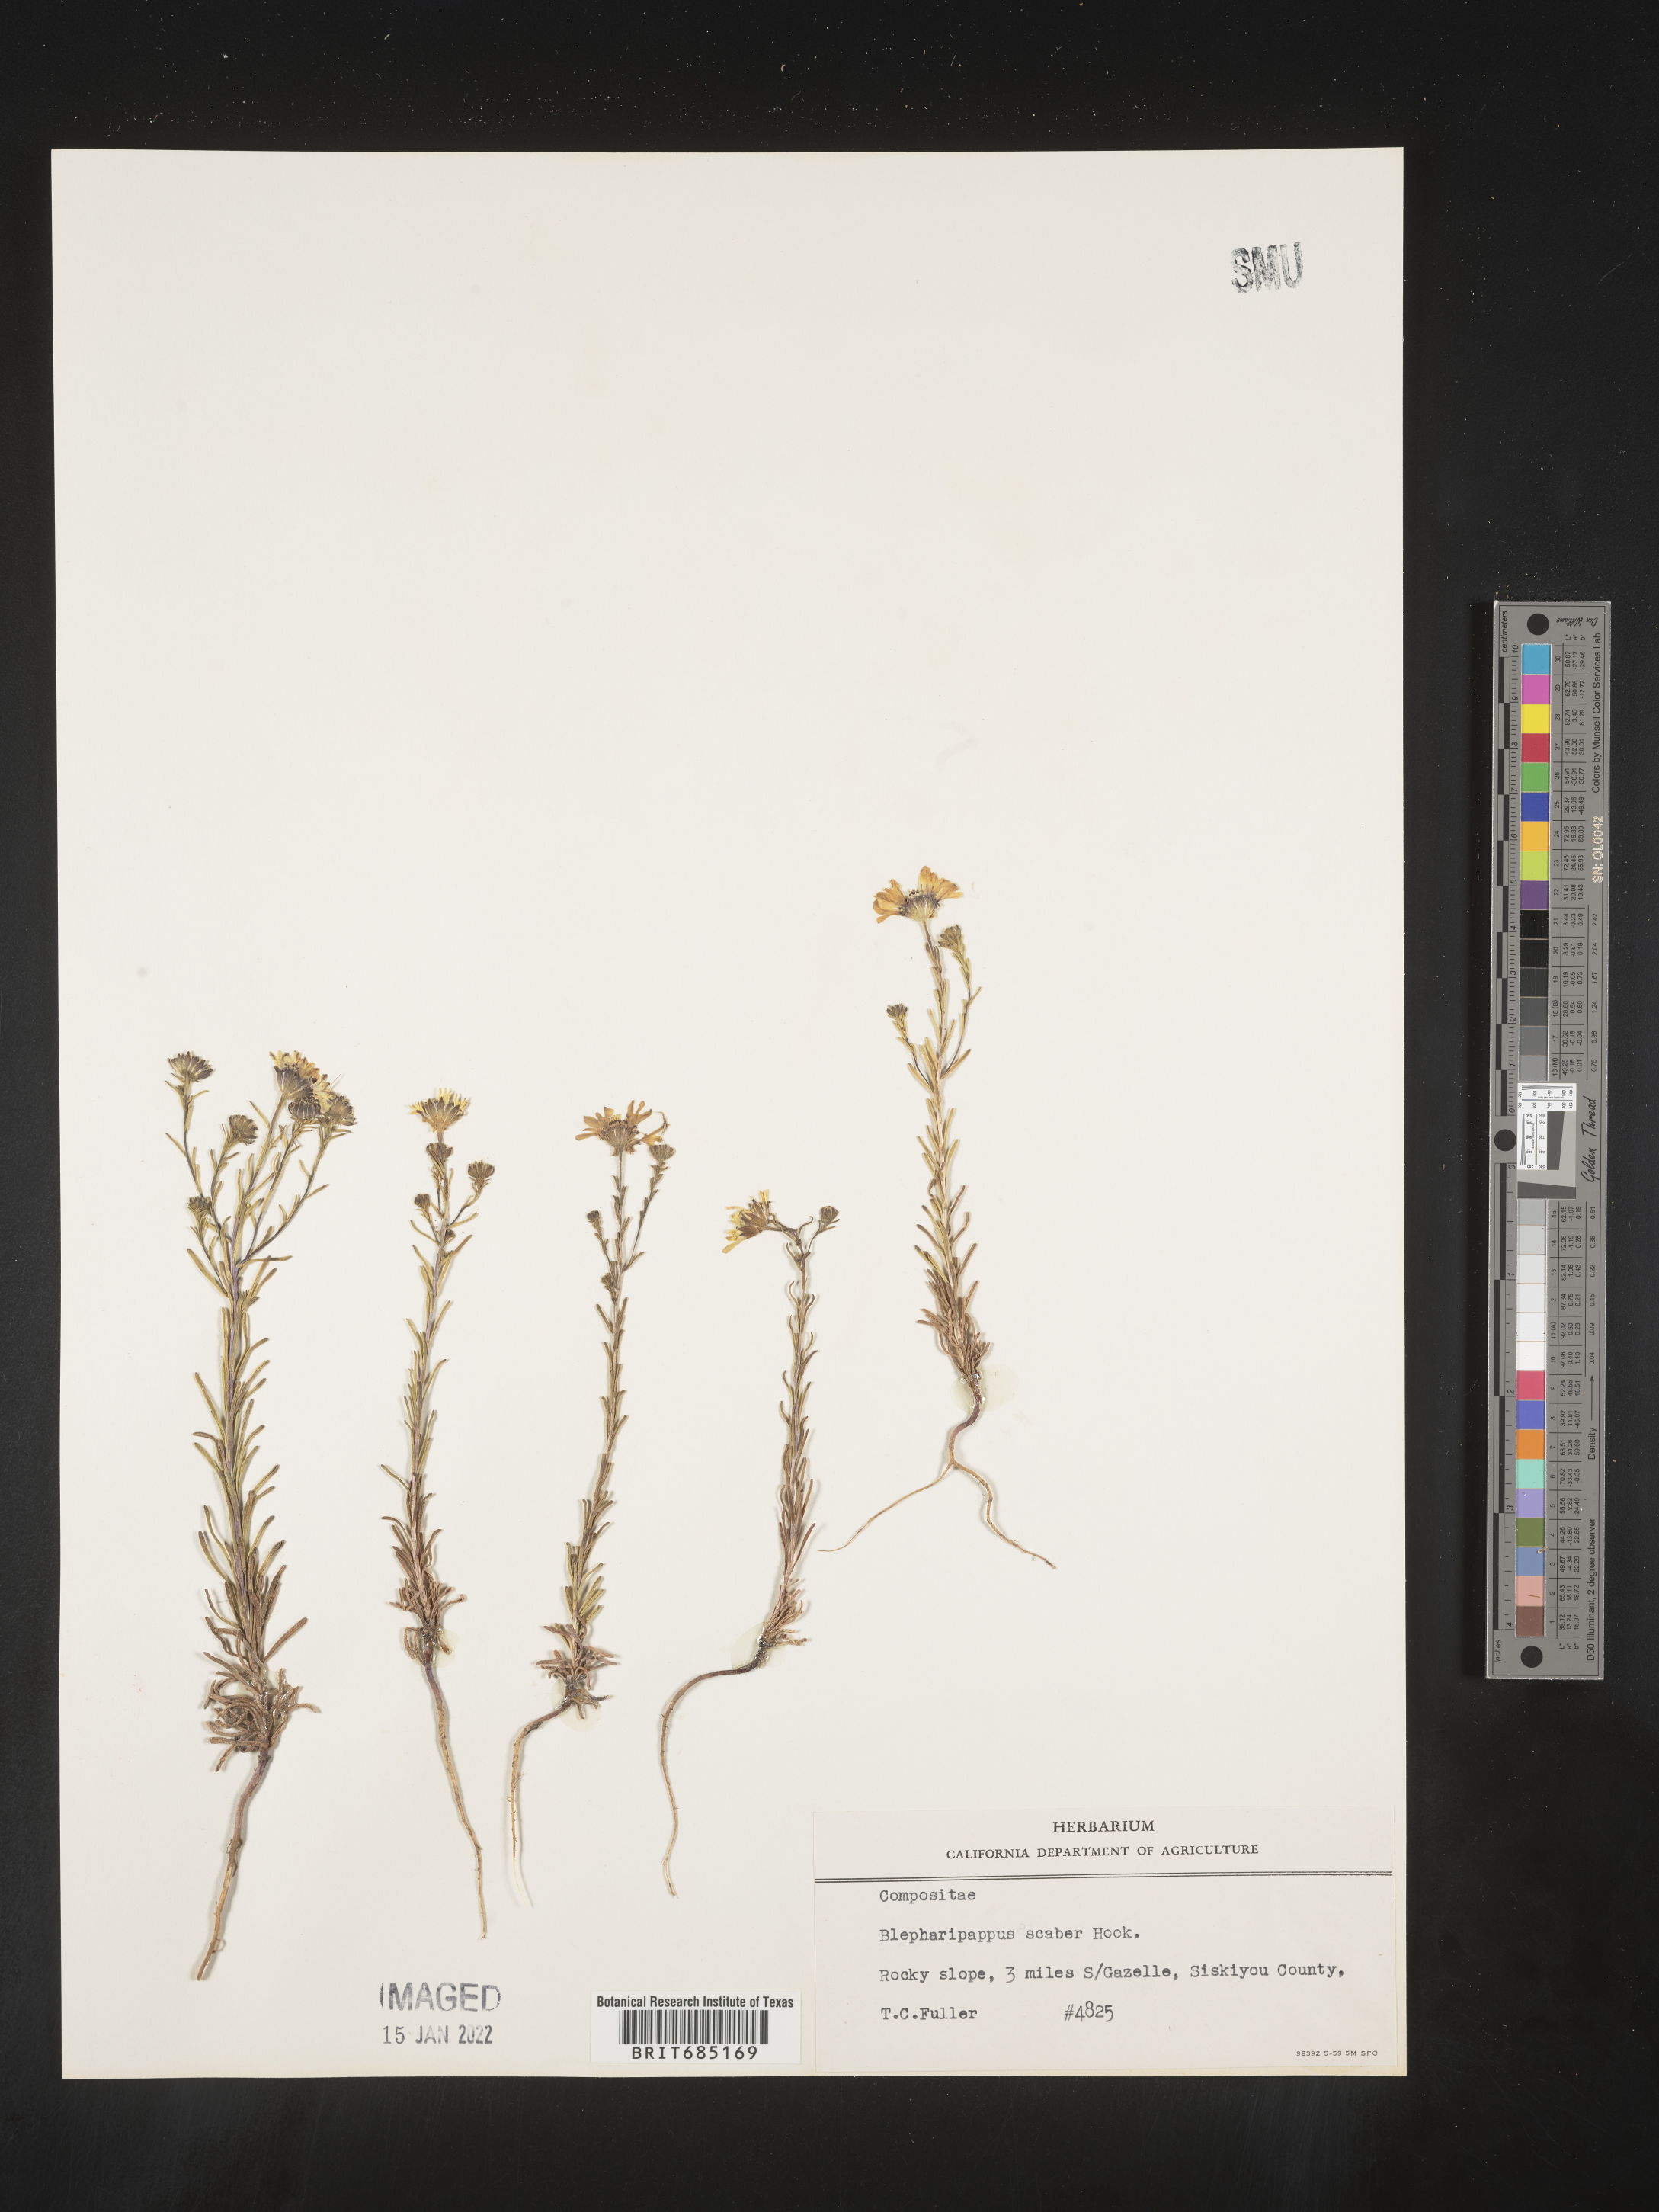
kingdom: Plantae
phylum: Tracheophyta
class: Magnoliopsida
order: Asterales
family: Asteraceae
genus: Blepharipappus
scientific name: Blepharipappus
